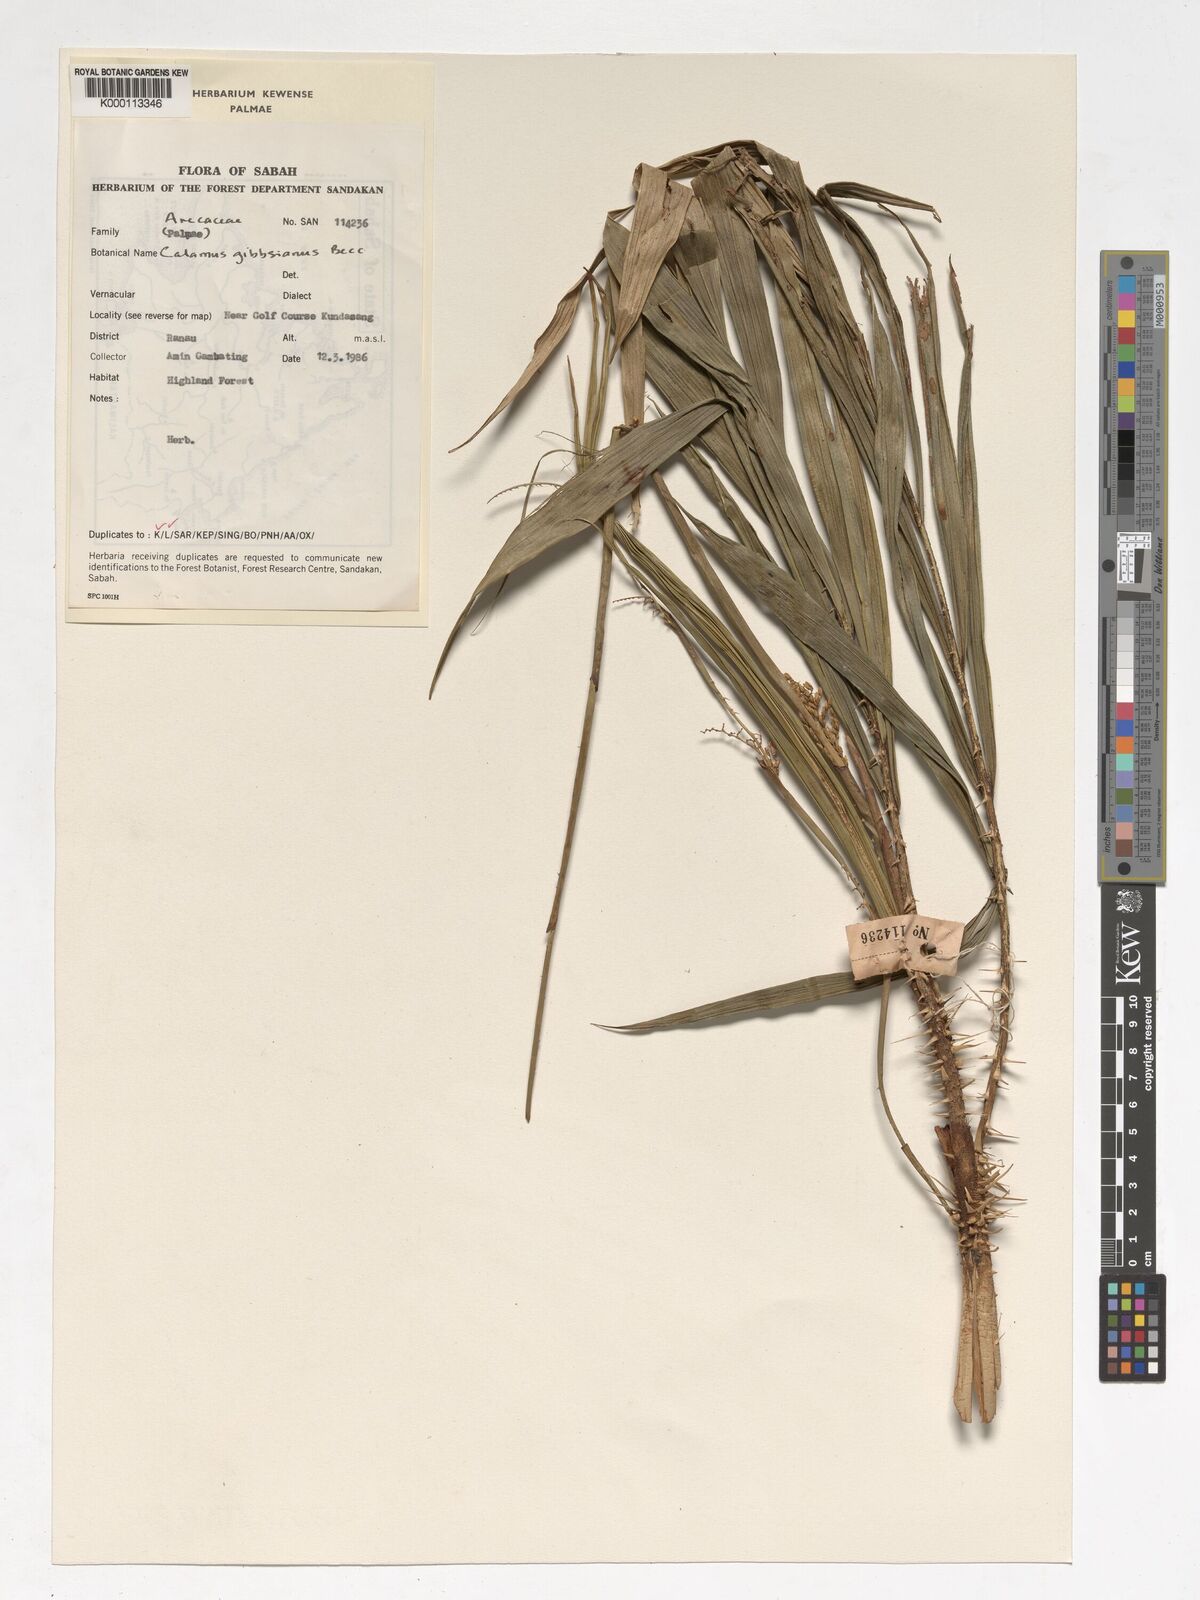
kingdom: Plantae
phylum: Tracheophyta
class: Liliopsida
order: Arecales
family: Arecaceae
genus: Calamus
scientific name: Calamus gibbsianus
